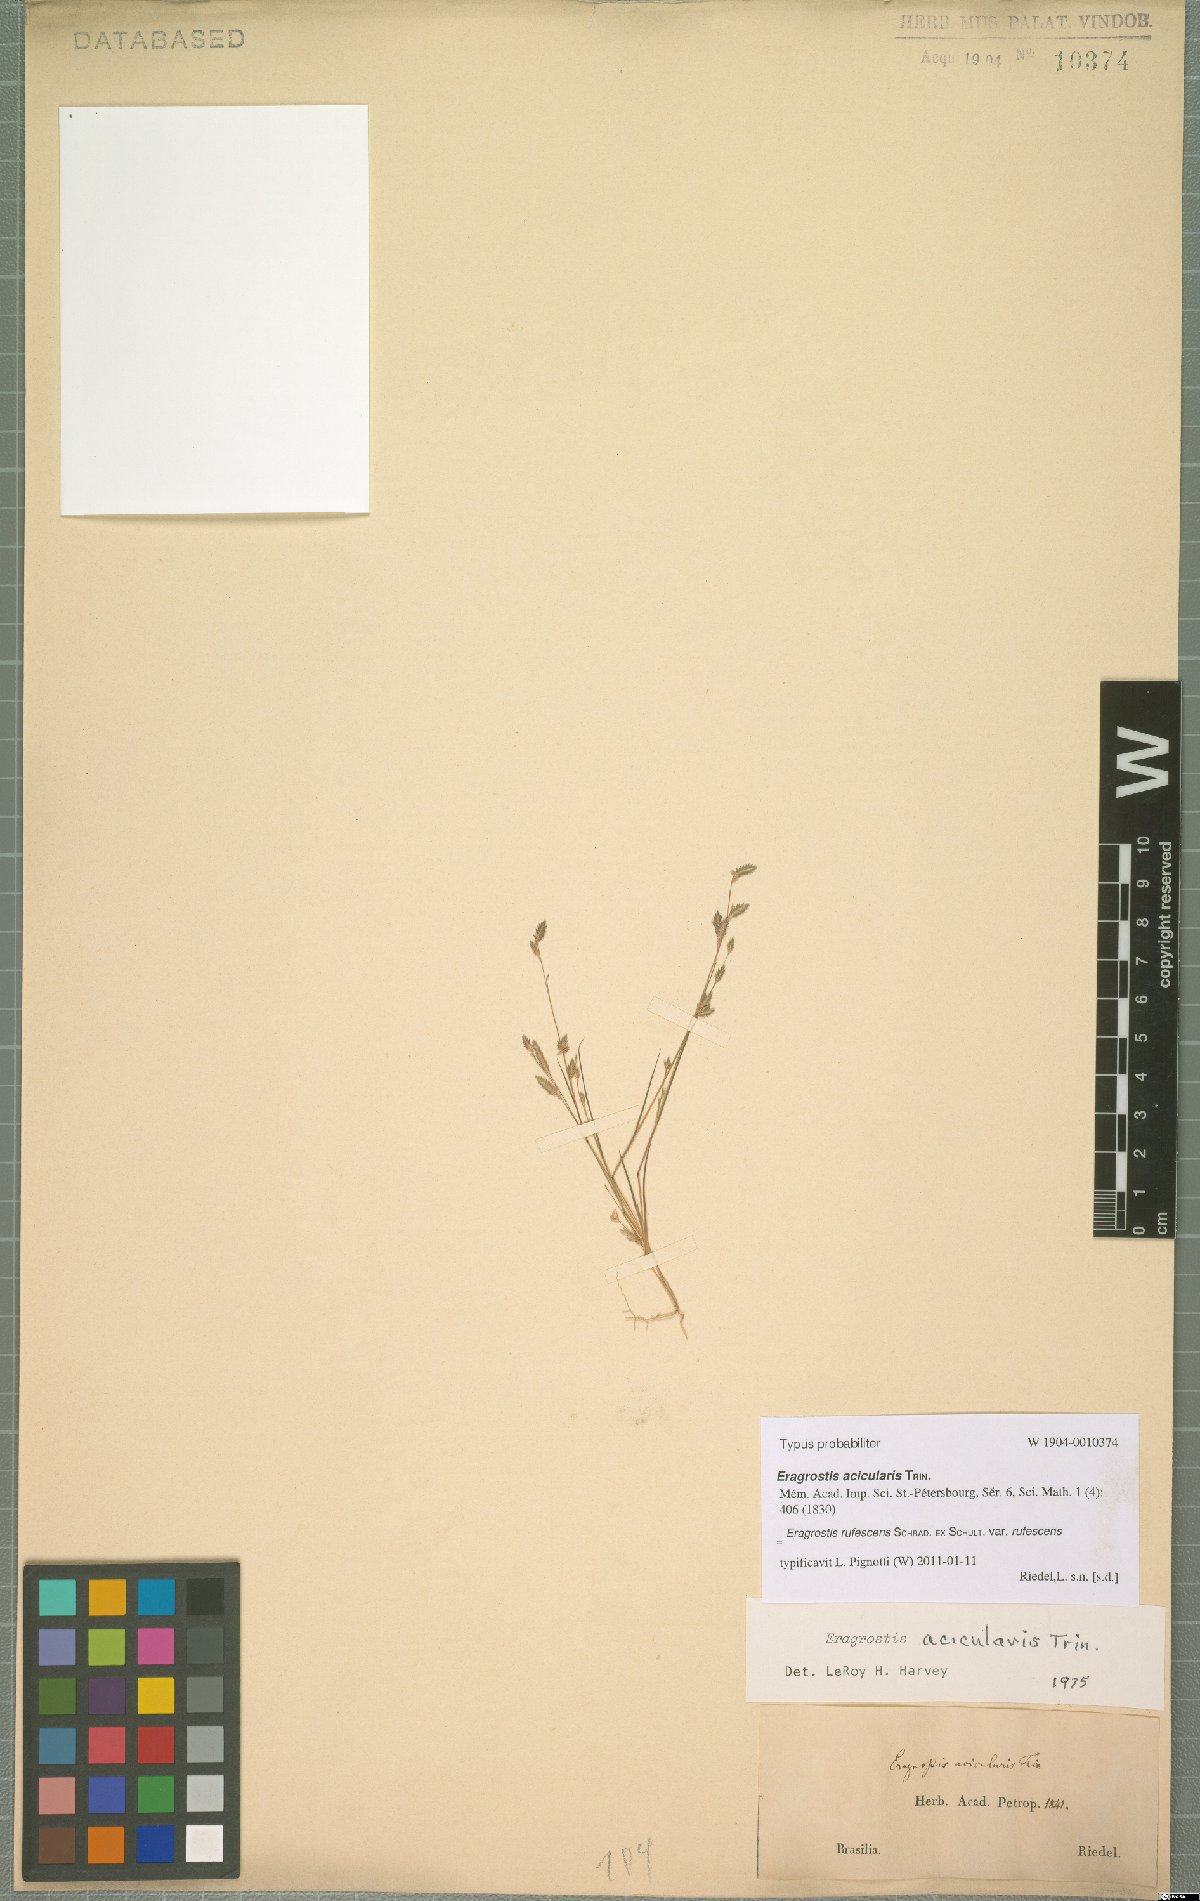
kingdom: Plantae
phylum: Tracheophyta
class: Liliopsida
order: Poales
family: Poaceae
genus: Eragrostis
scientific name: Eragrostis rufescens
